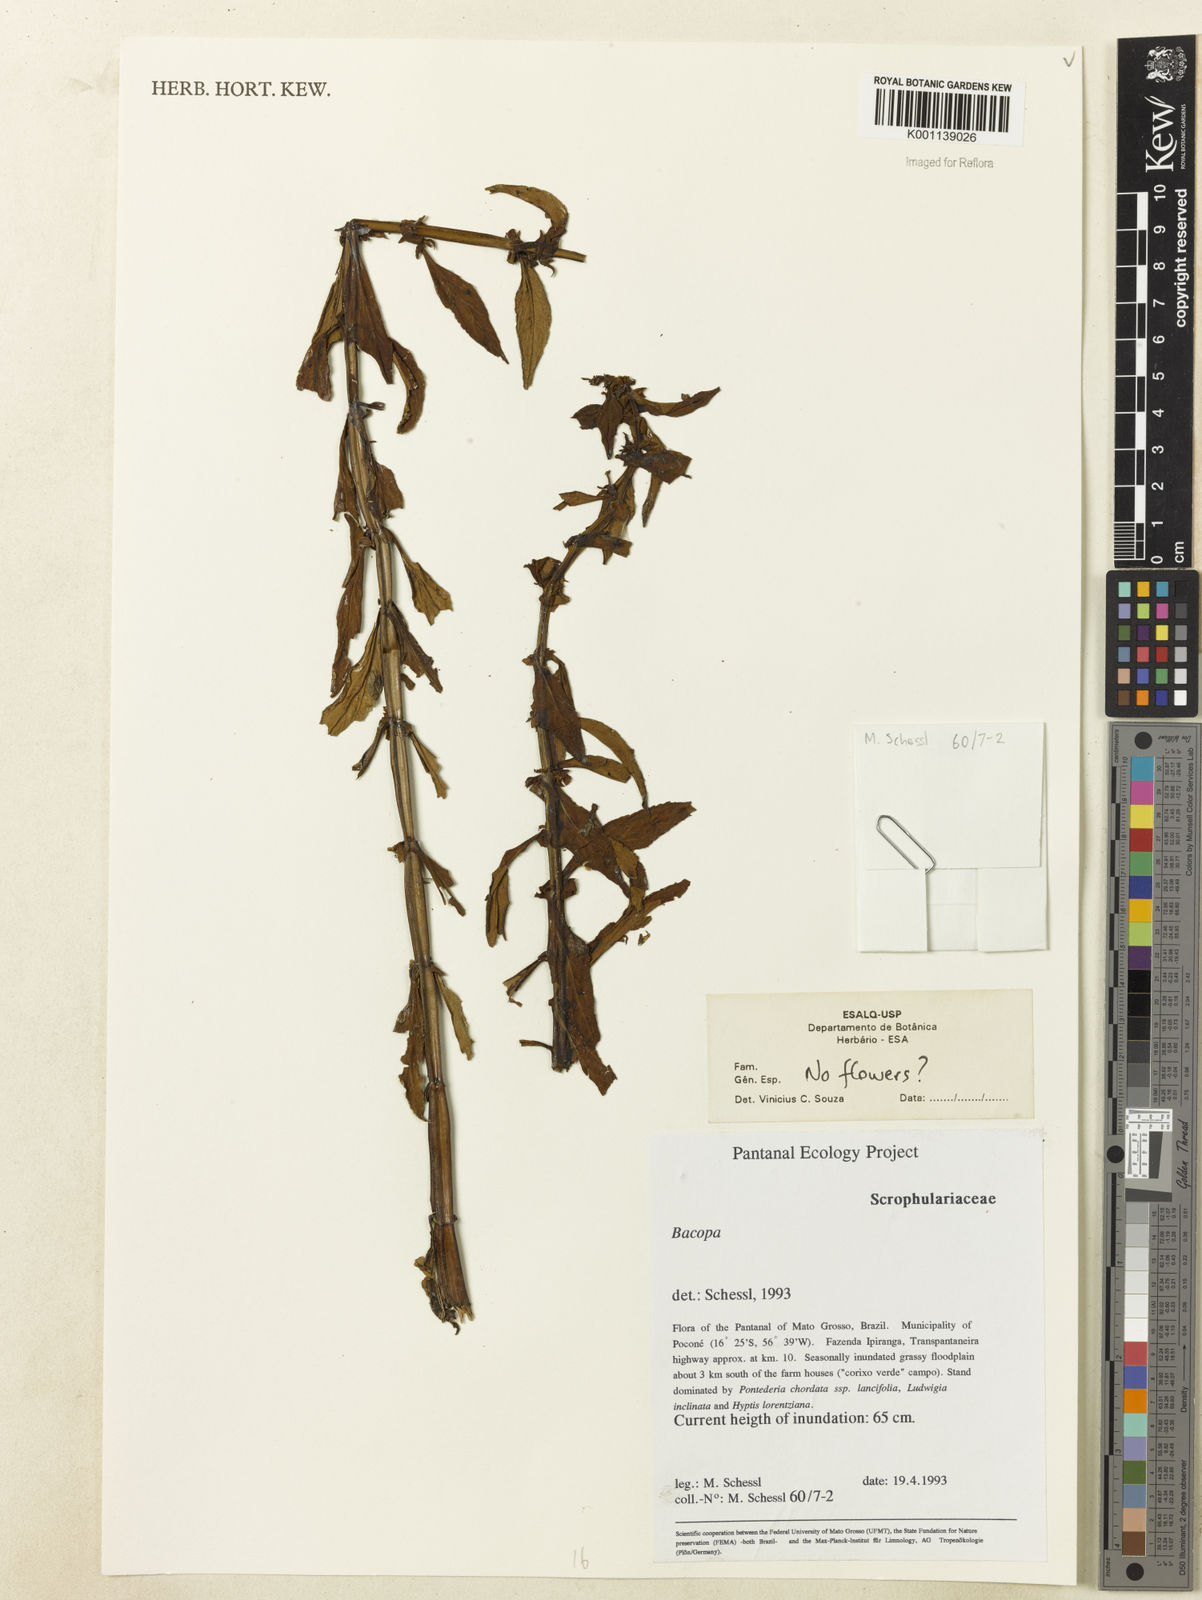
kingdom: Plantae
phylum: Tracheophyta
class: Magnoliopsida
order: Lamiales
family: Plantaginaceae
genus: Bacopa
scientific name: Bacopa
